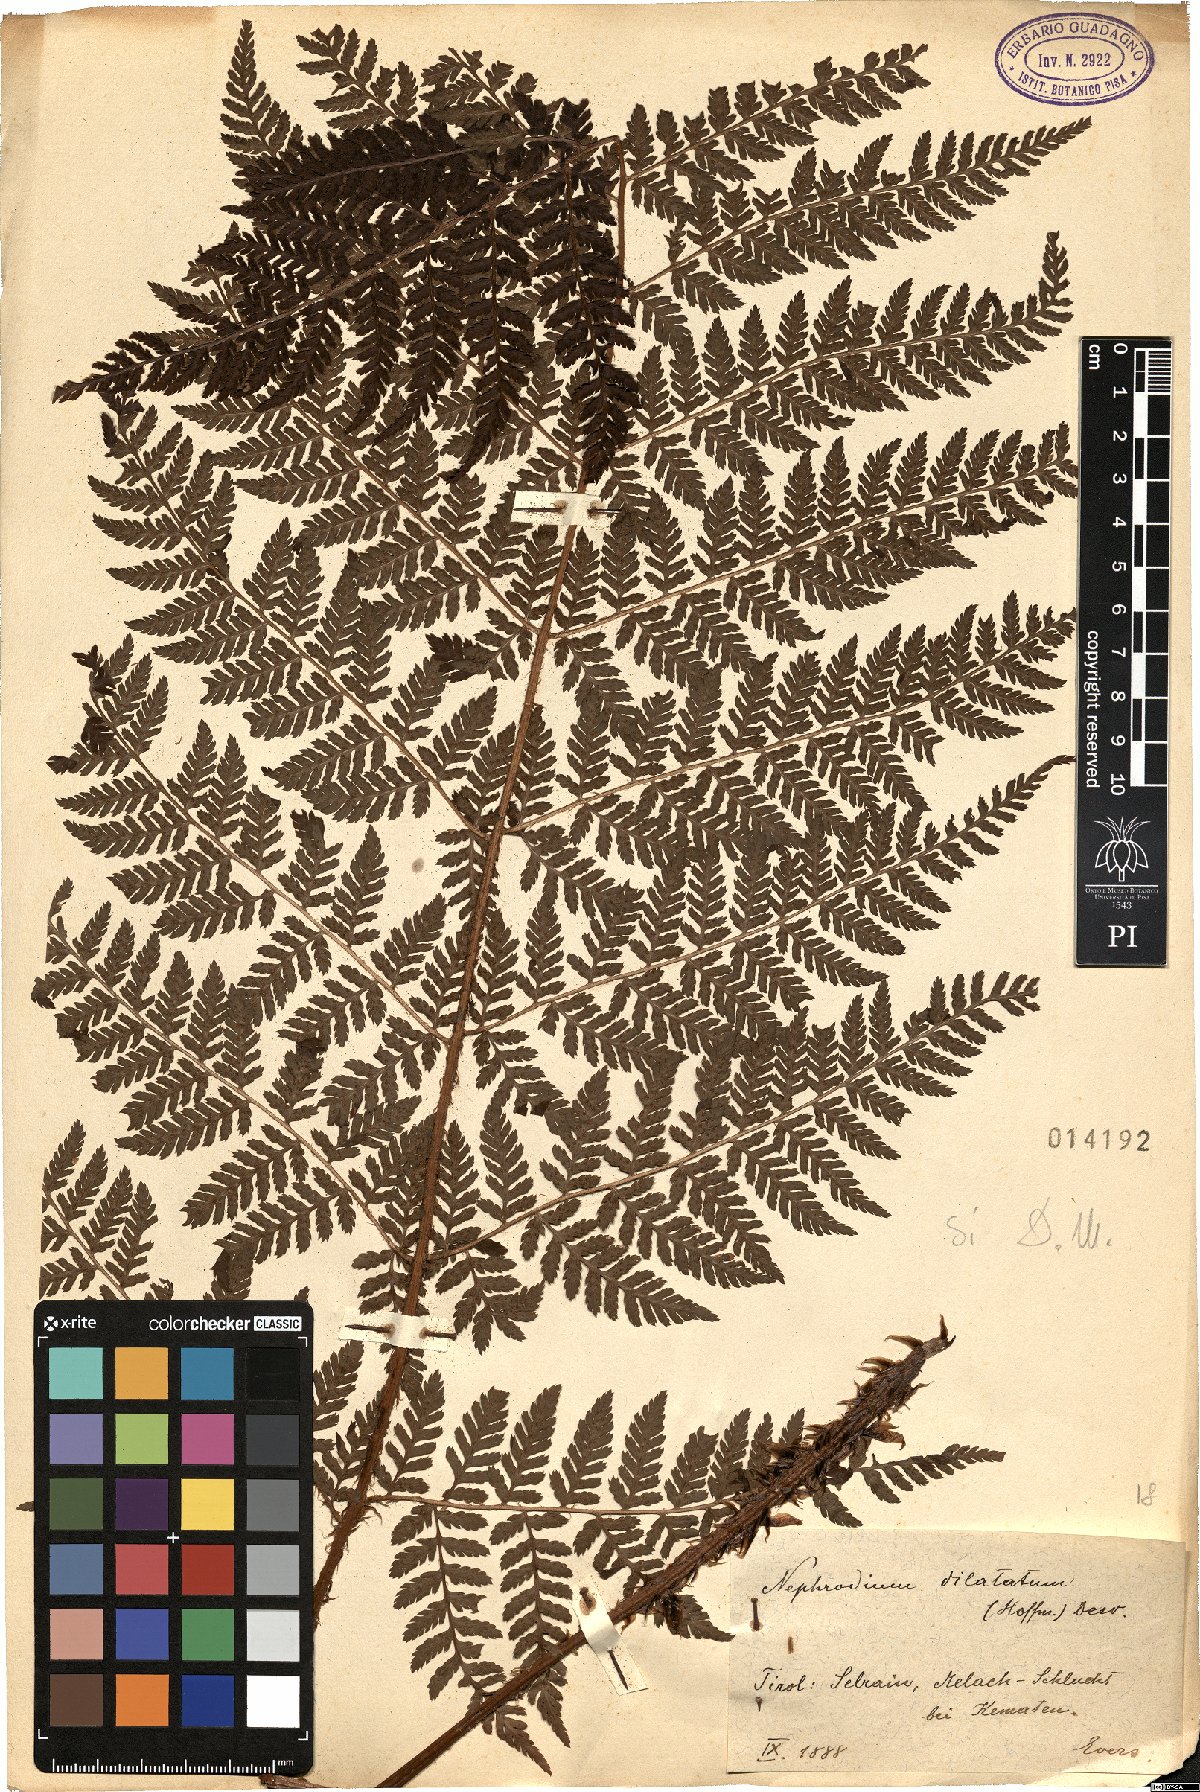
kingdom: Plantae
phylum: Tracheophyta
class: Polypodiopsida
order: Polypodiales
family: Dryopteridaceae
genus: Dryopteris
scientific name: Dryopteris dilatata
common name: Broad buckler-fern
